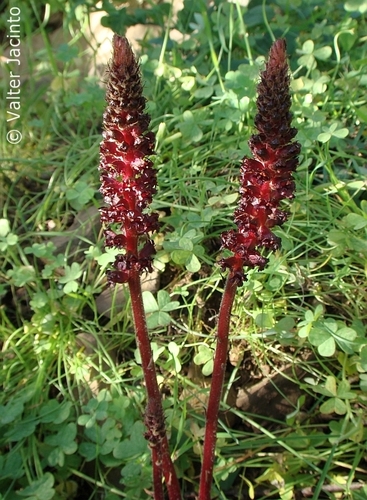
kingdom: Plantae
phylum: Tracheophyta
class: Magnoliopsida
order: Lamiales
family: Orobanchaceae
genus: Orobanche
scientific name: Orobanche foetida
